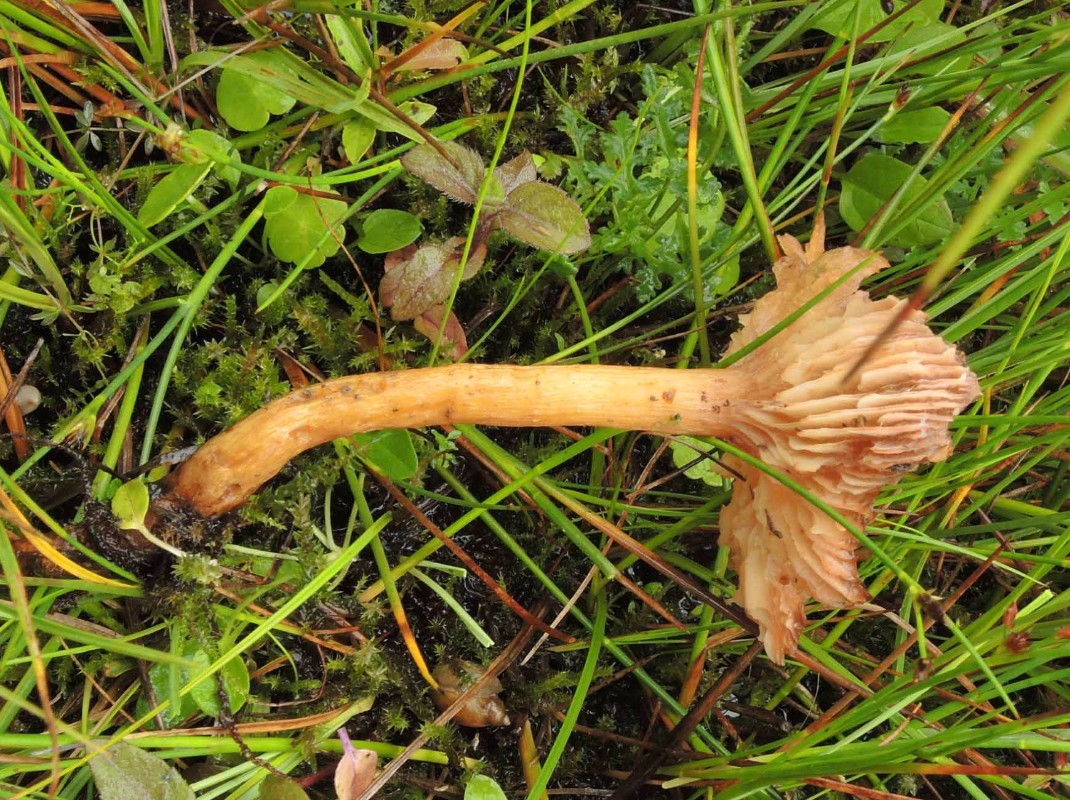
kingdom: Fungi
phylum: Basidiomycota
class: Agaricomycetes
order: Agaricales
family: Physalacriaceae
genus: Desarmillaria
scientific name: Desarmillaria ectypa
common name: ringløs honningsvamp
